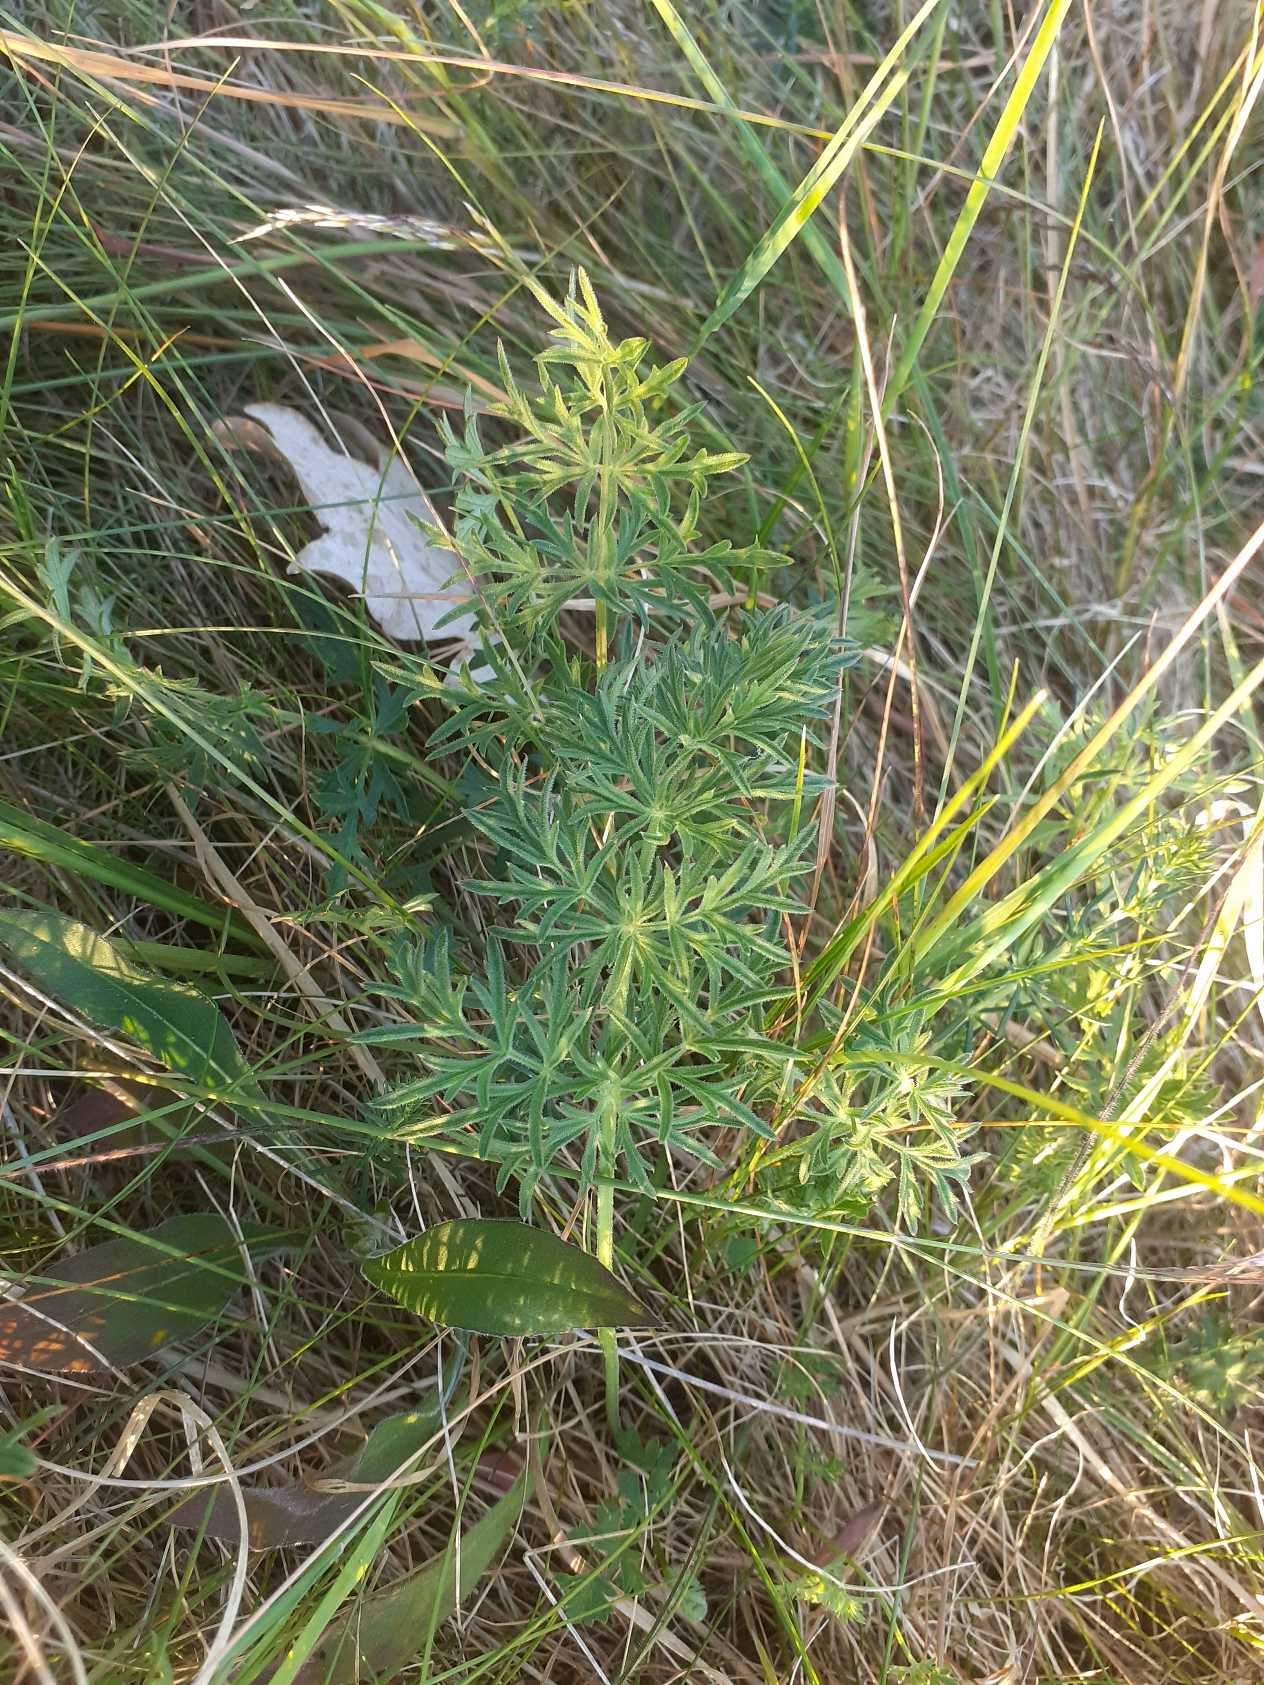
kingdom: Plantae
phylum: Tracheophyta
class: Magnoliopsida
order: Apiales
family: Apiaceae
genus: Pimpinella
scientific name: Pimpinella saxifraga
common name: Almindelig pimpinelle
